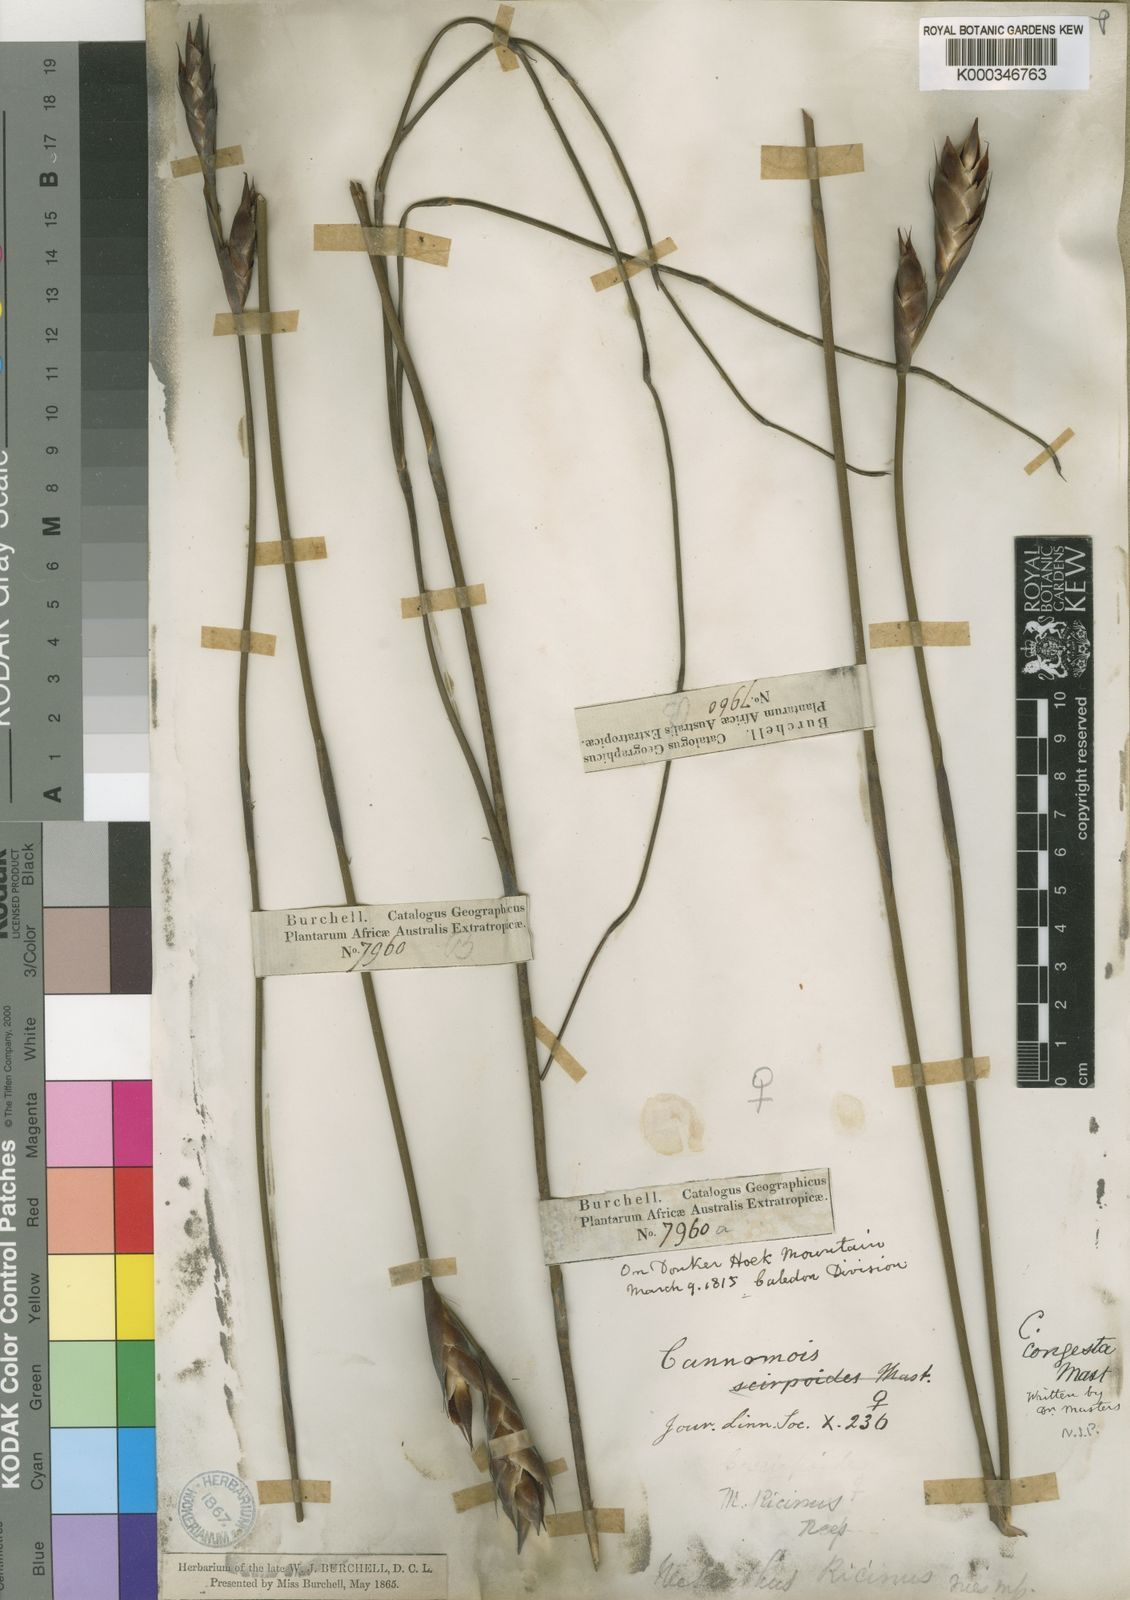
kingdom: Plantae
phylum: Tracheophyta
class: Liliopsida
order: Poales
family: Restionaceae
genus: Cannomois
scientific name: Cannomois congesta
